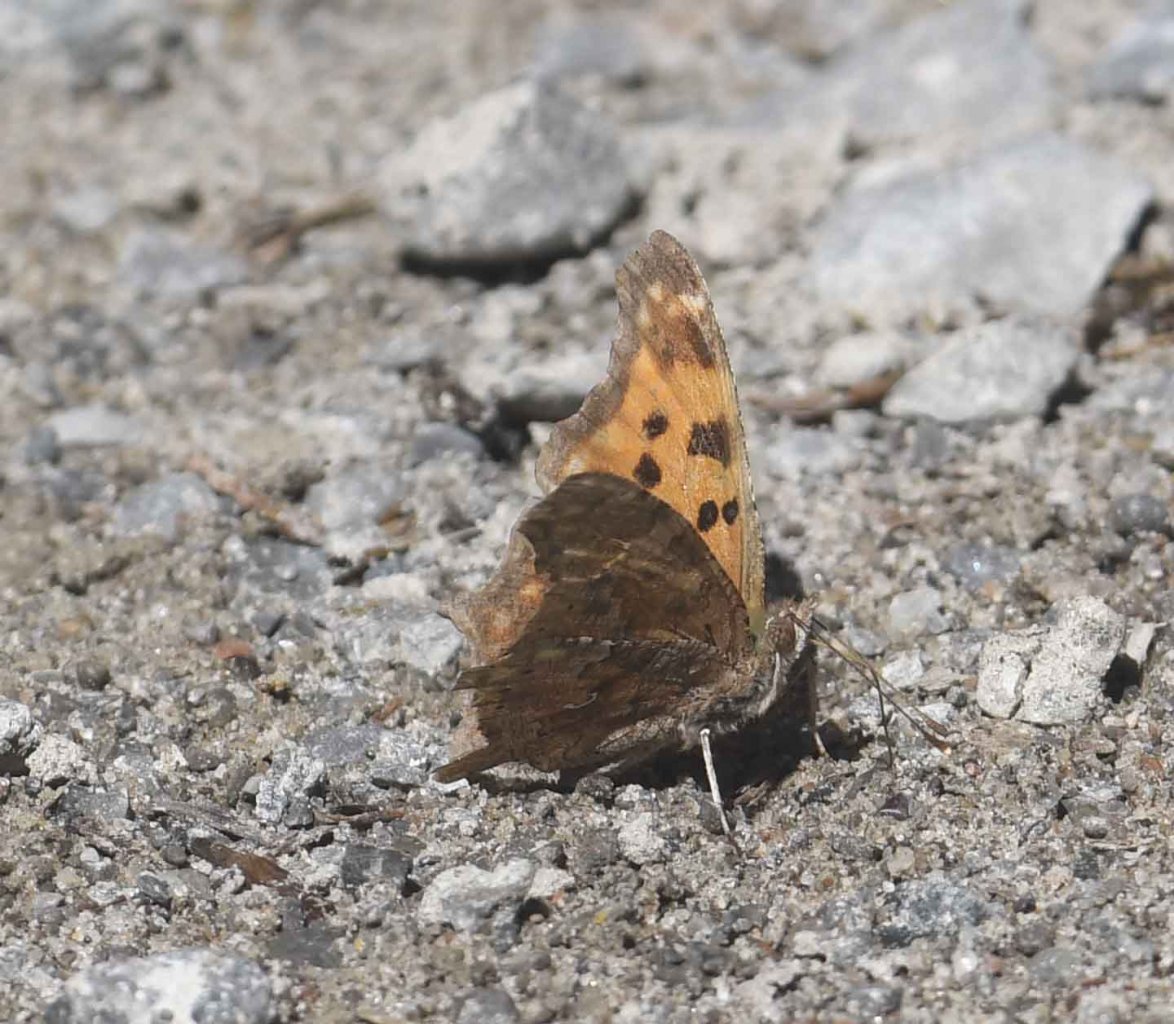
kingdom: Animalia
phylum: Arthropoda
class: Insecta
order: Lepidoptera
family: Nymphalidae
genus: Polygonia
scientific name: Polygonia comma
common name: Eastern Comma
